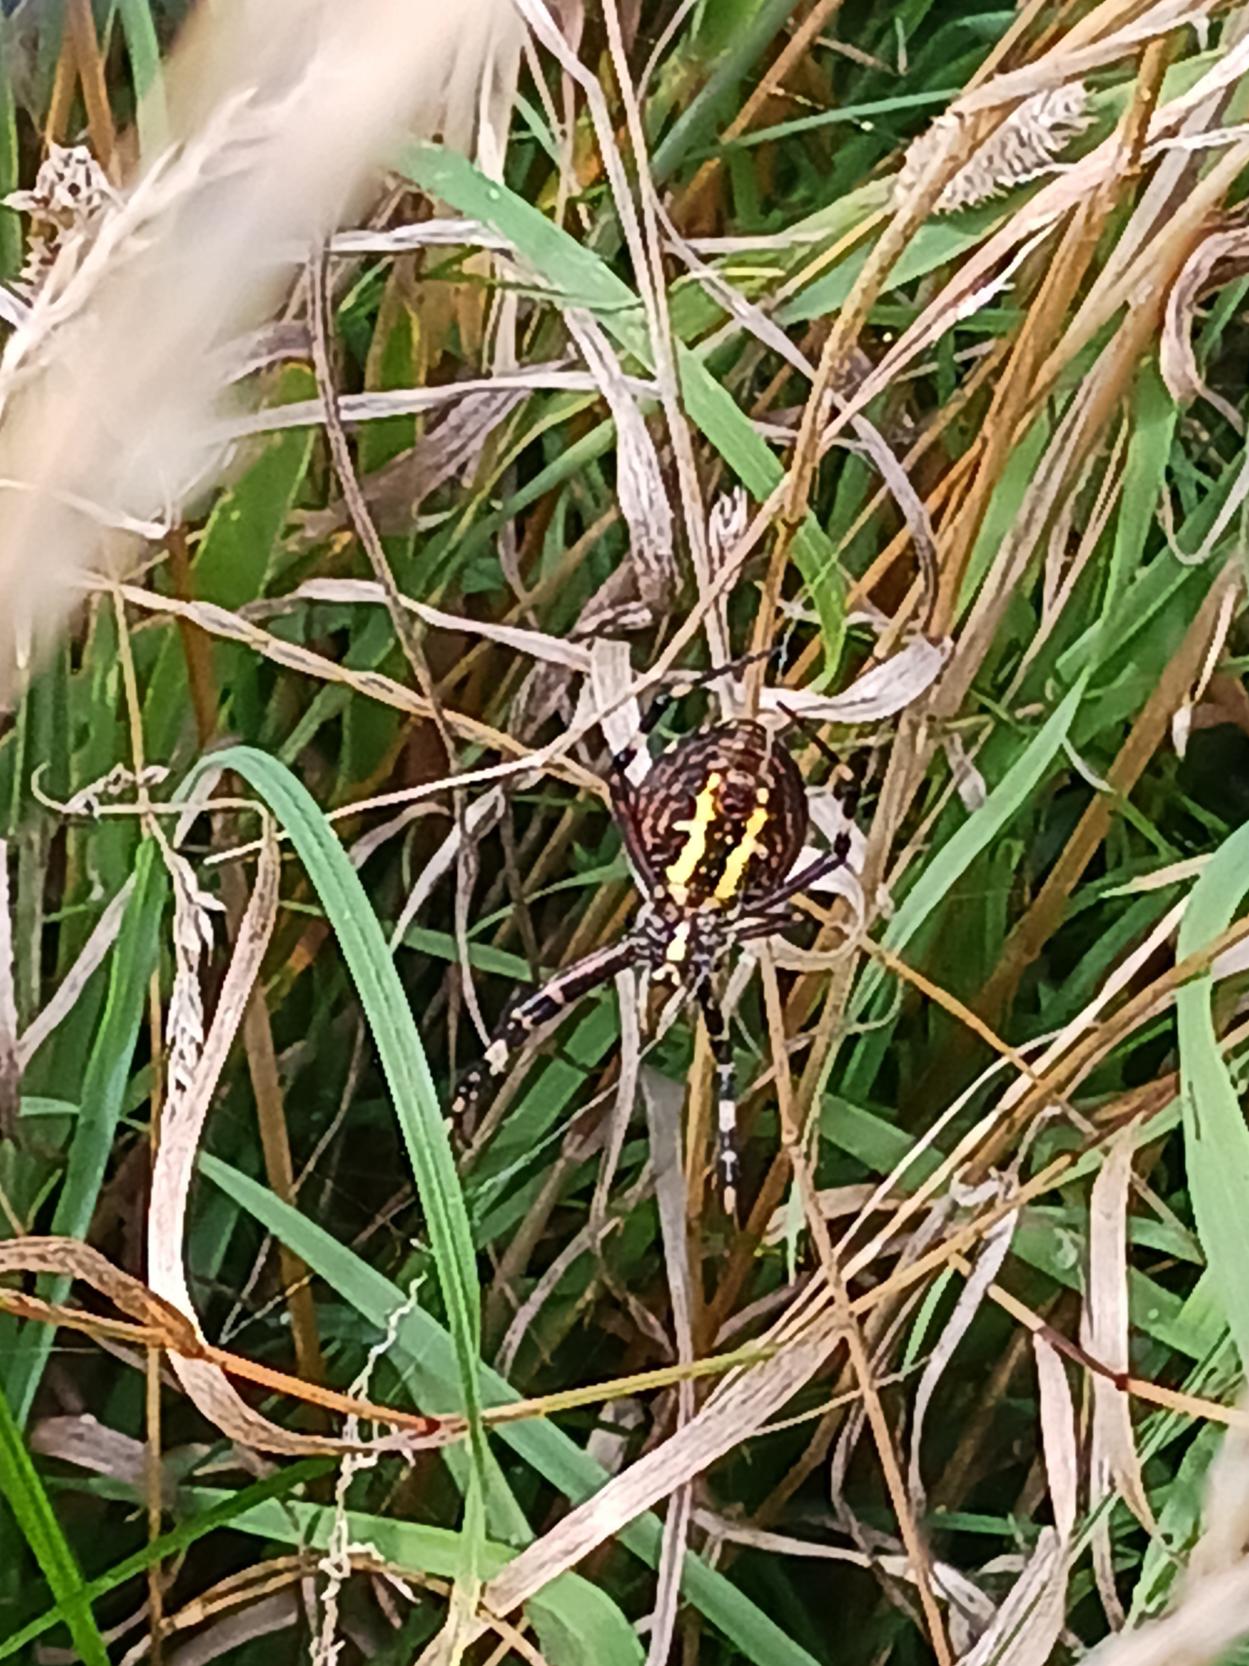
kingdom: Animalia
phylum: Arthropoda
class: Arachnida
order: Araneae
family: Araneidae
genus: Argiope
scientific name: Argiope bruennichi
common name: Hvepseedderkop
